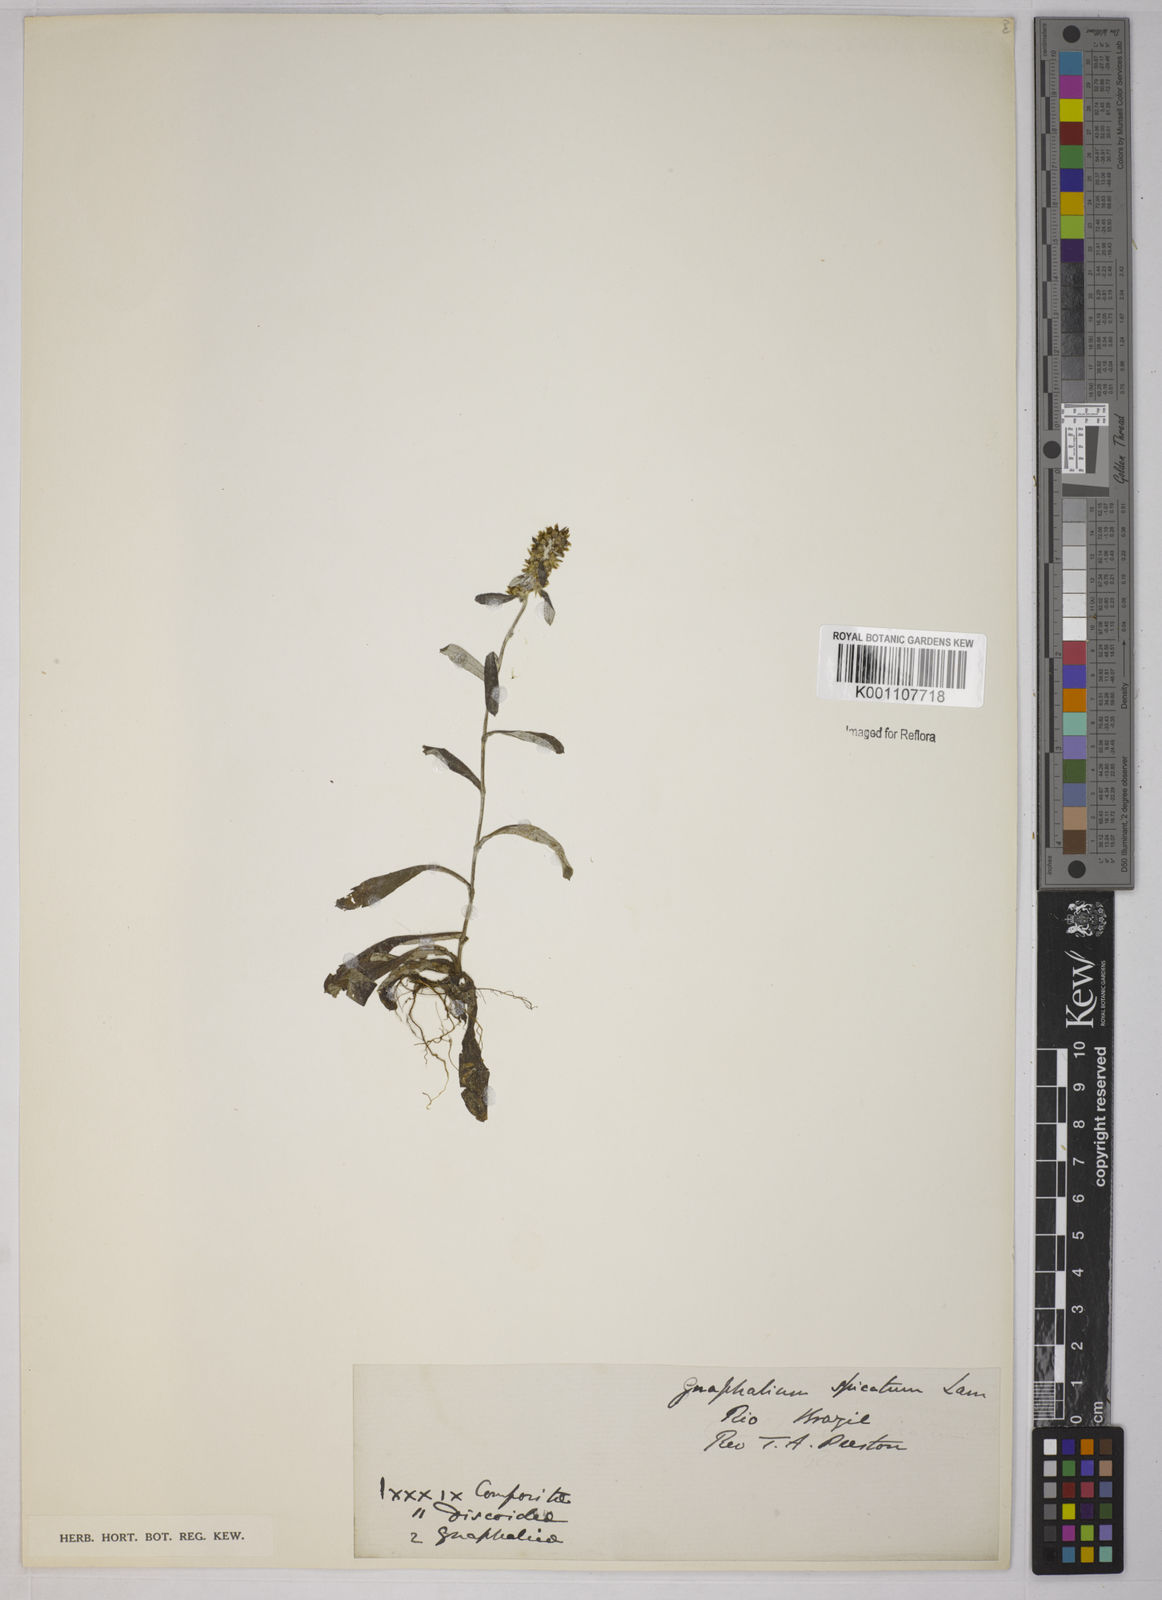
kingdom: Plantae
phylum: Tracheophyta
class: Magnoliopsida
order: Asterales
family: Asteraceae
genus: Gnaphalium
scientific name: Gnaphalium
